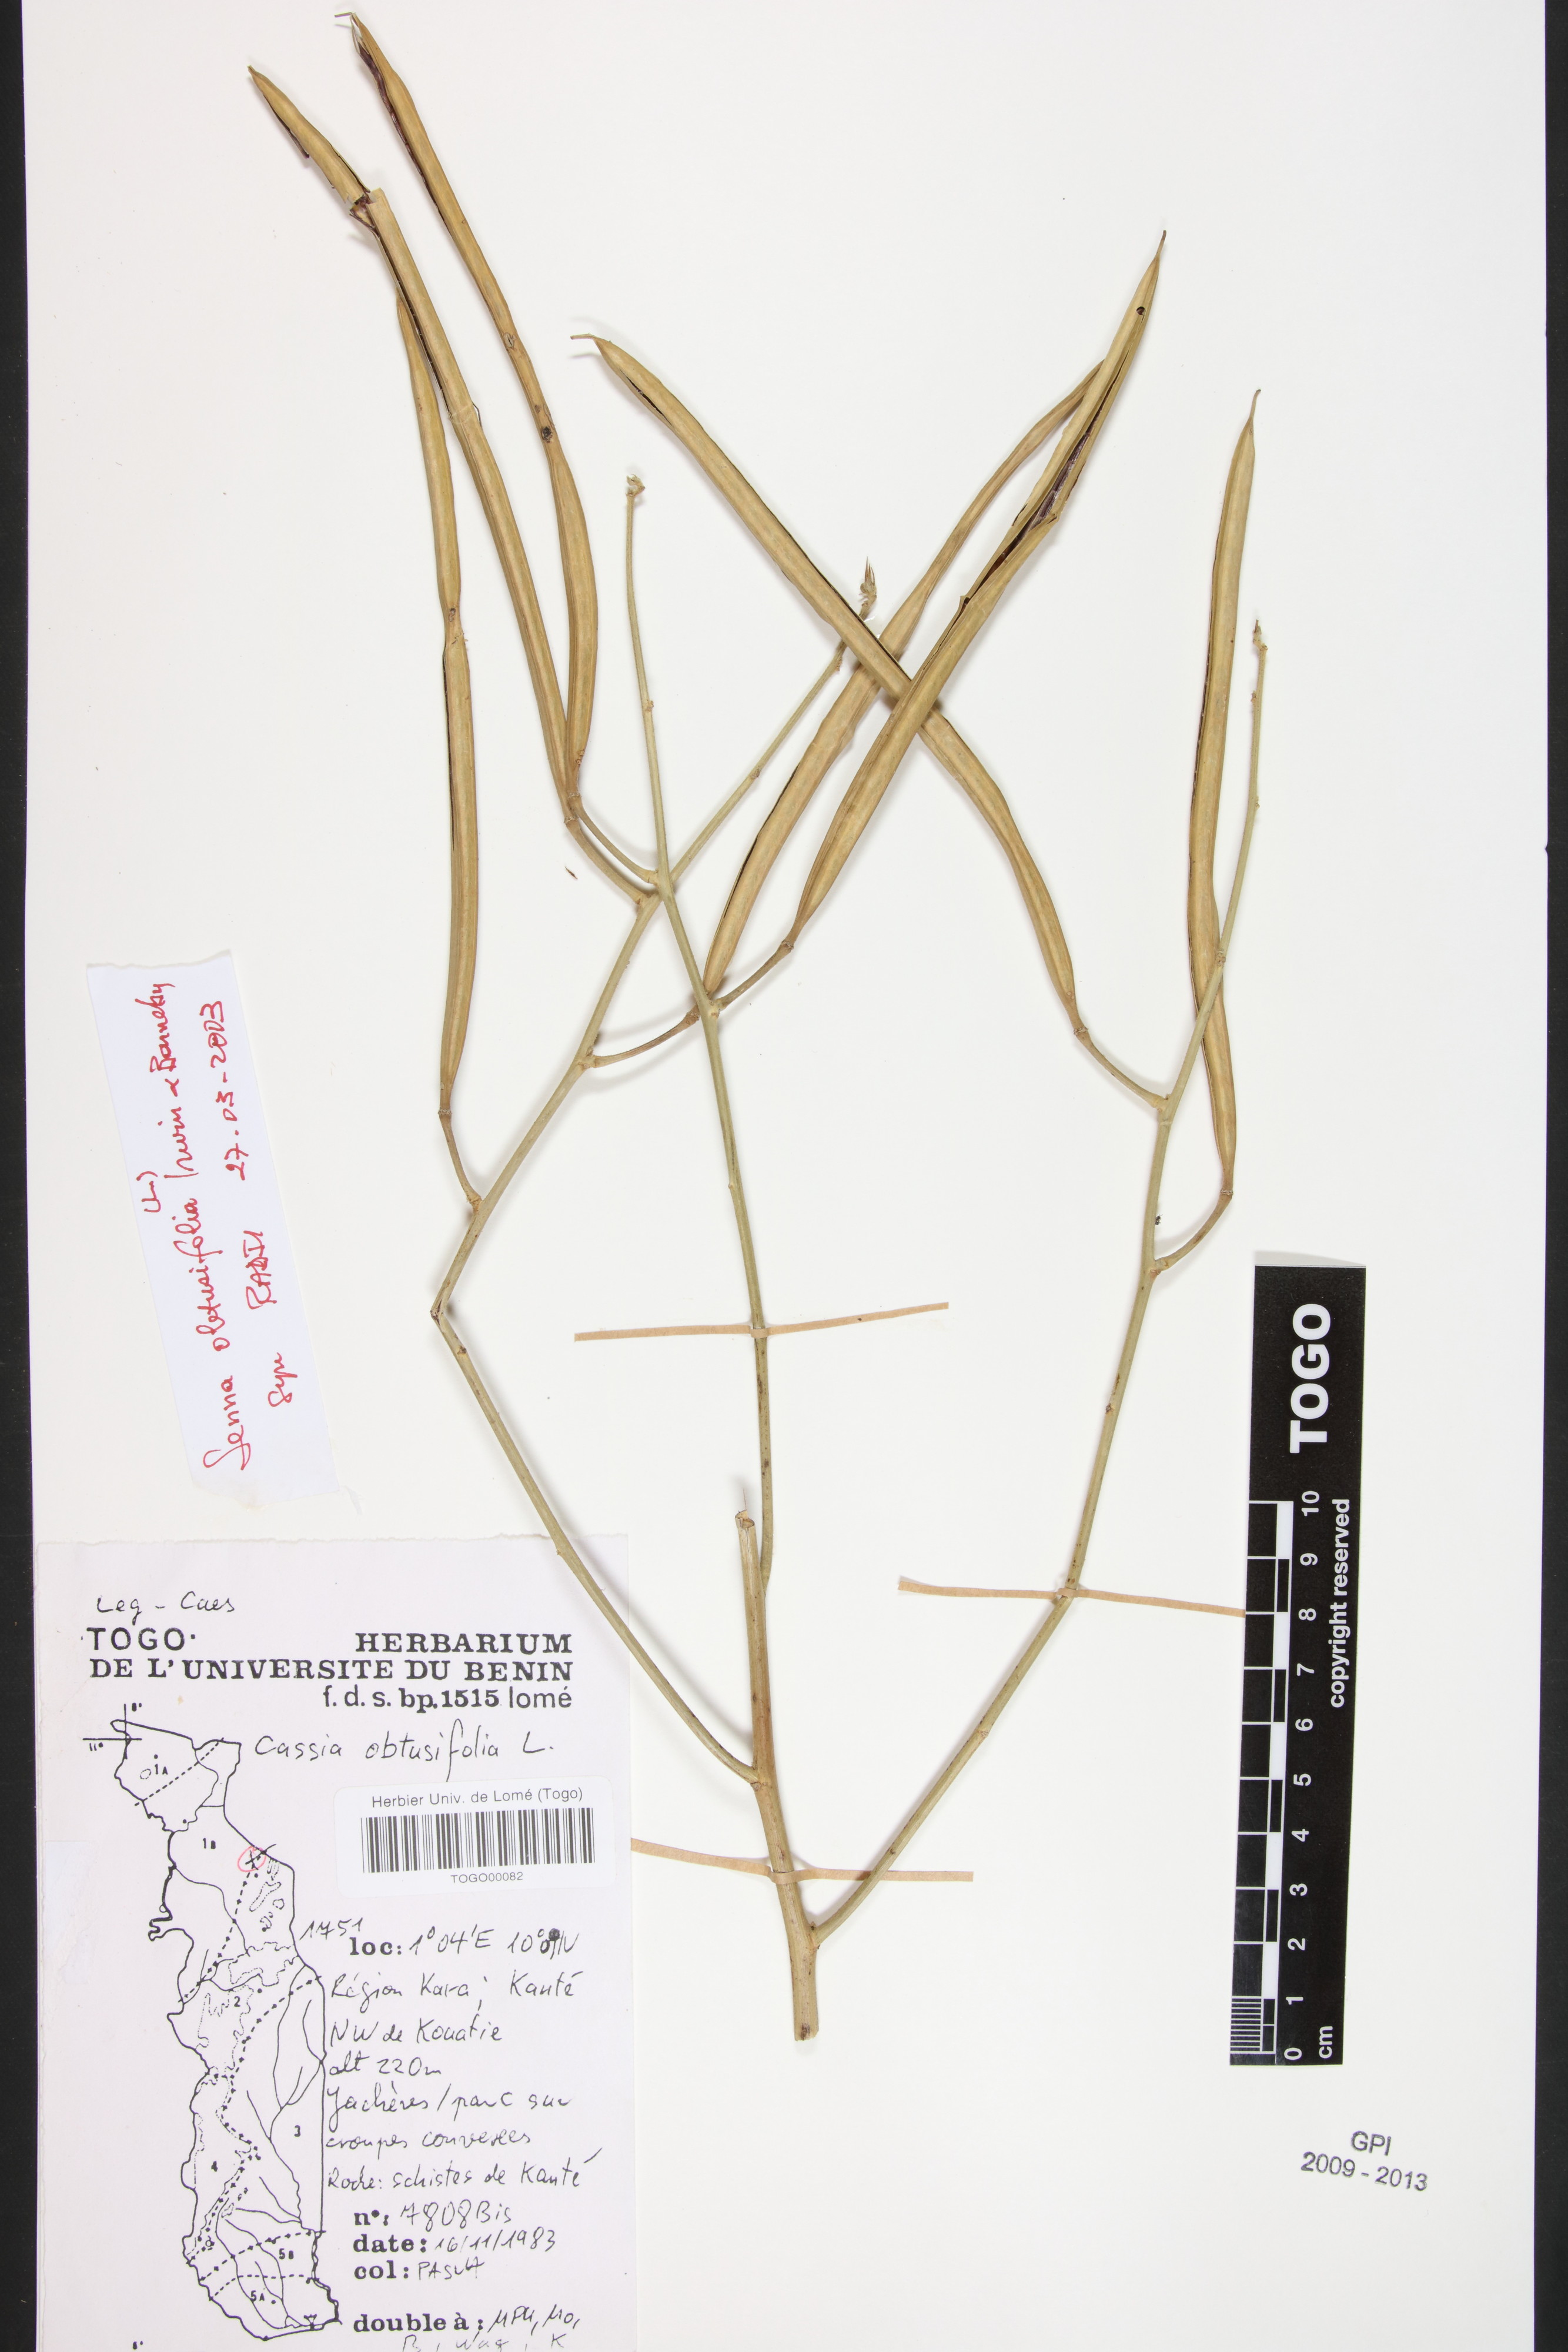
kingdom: Plantae
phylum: Tracheophyta
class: Magnoliopsida
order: Fabales
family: Fabaceae
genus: Senna
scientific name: Senna obtusifolia
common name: Java-bean
